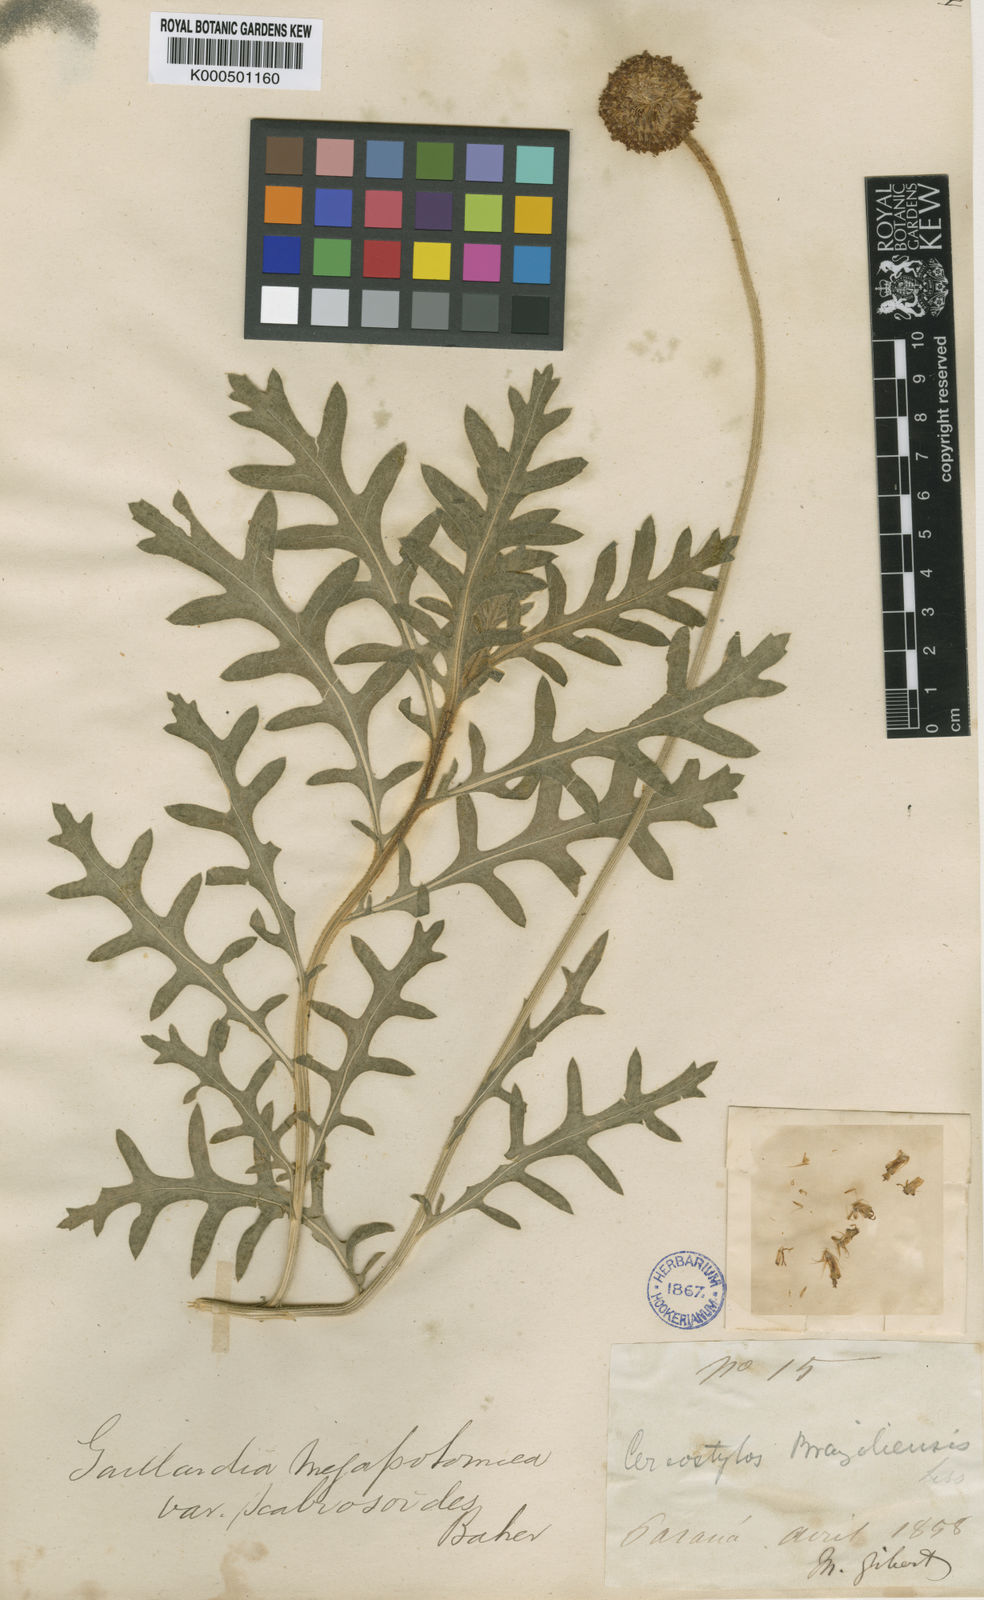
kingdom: Plantae
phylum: Tracheophyta
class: Magnoliopsida
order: Asterales
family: Asteraceae
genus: Gaillardia
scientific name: Gaillardia megapotamica
